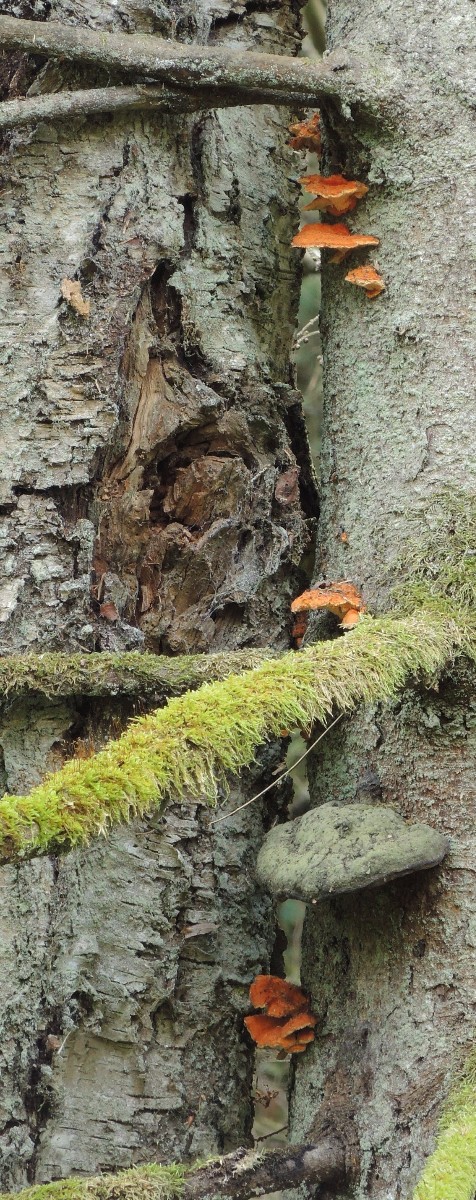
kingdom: Fungi
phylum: Basidiomycota
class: Agaricomycetes
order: Polyporales
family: Pycnoporellaceae
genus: Pycnoporellus
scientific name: Pycnoporellus fulgens
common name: flammeporesvamp
